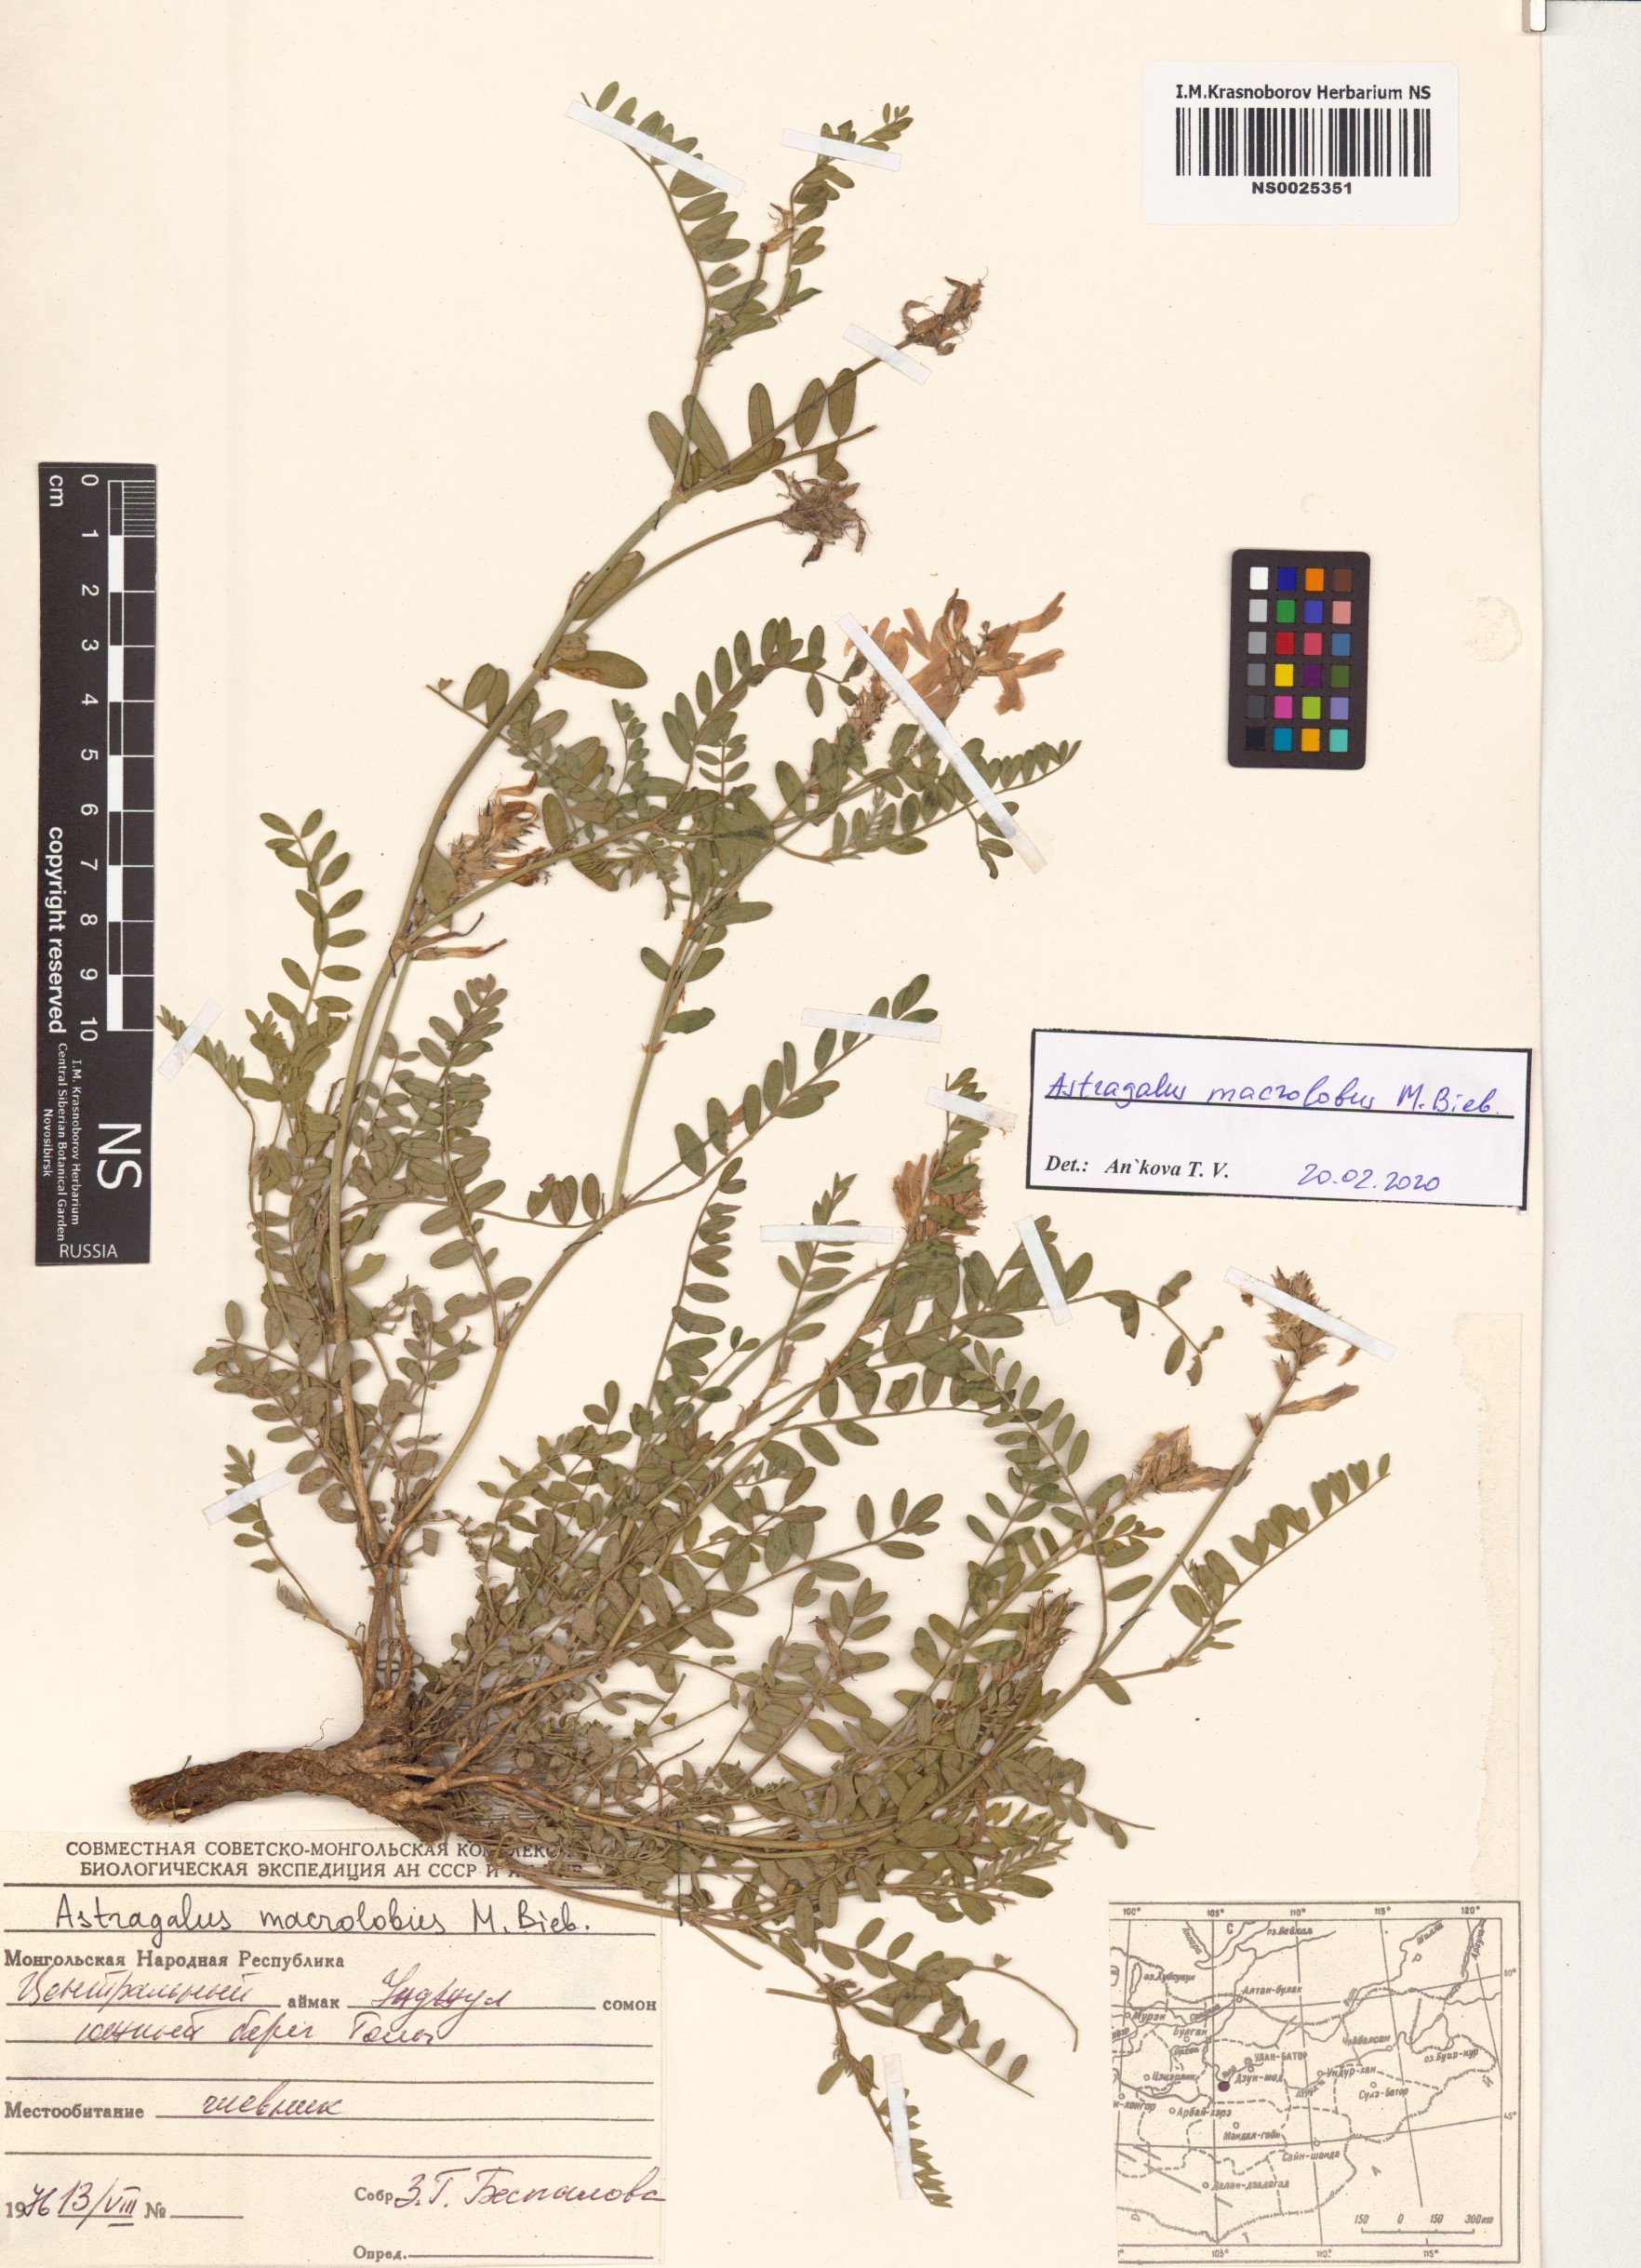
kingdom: Plantae
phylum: Tracheophyta
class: Magnoliopsida
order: Fabales
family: Fabaceae
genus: Astragalus
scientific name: Astragalus macrolobus
